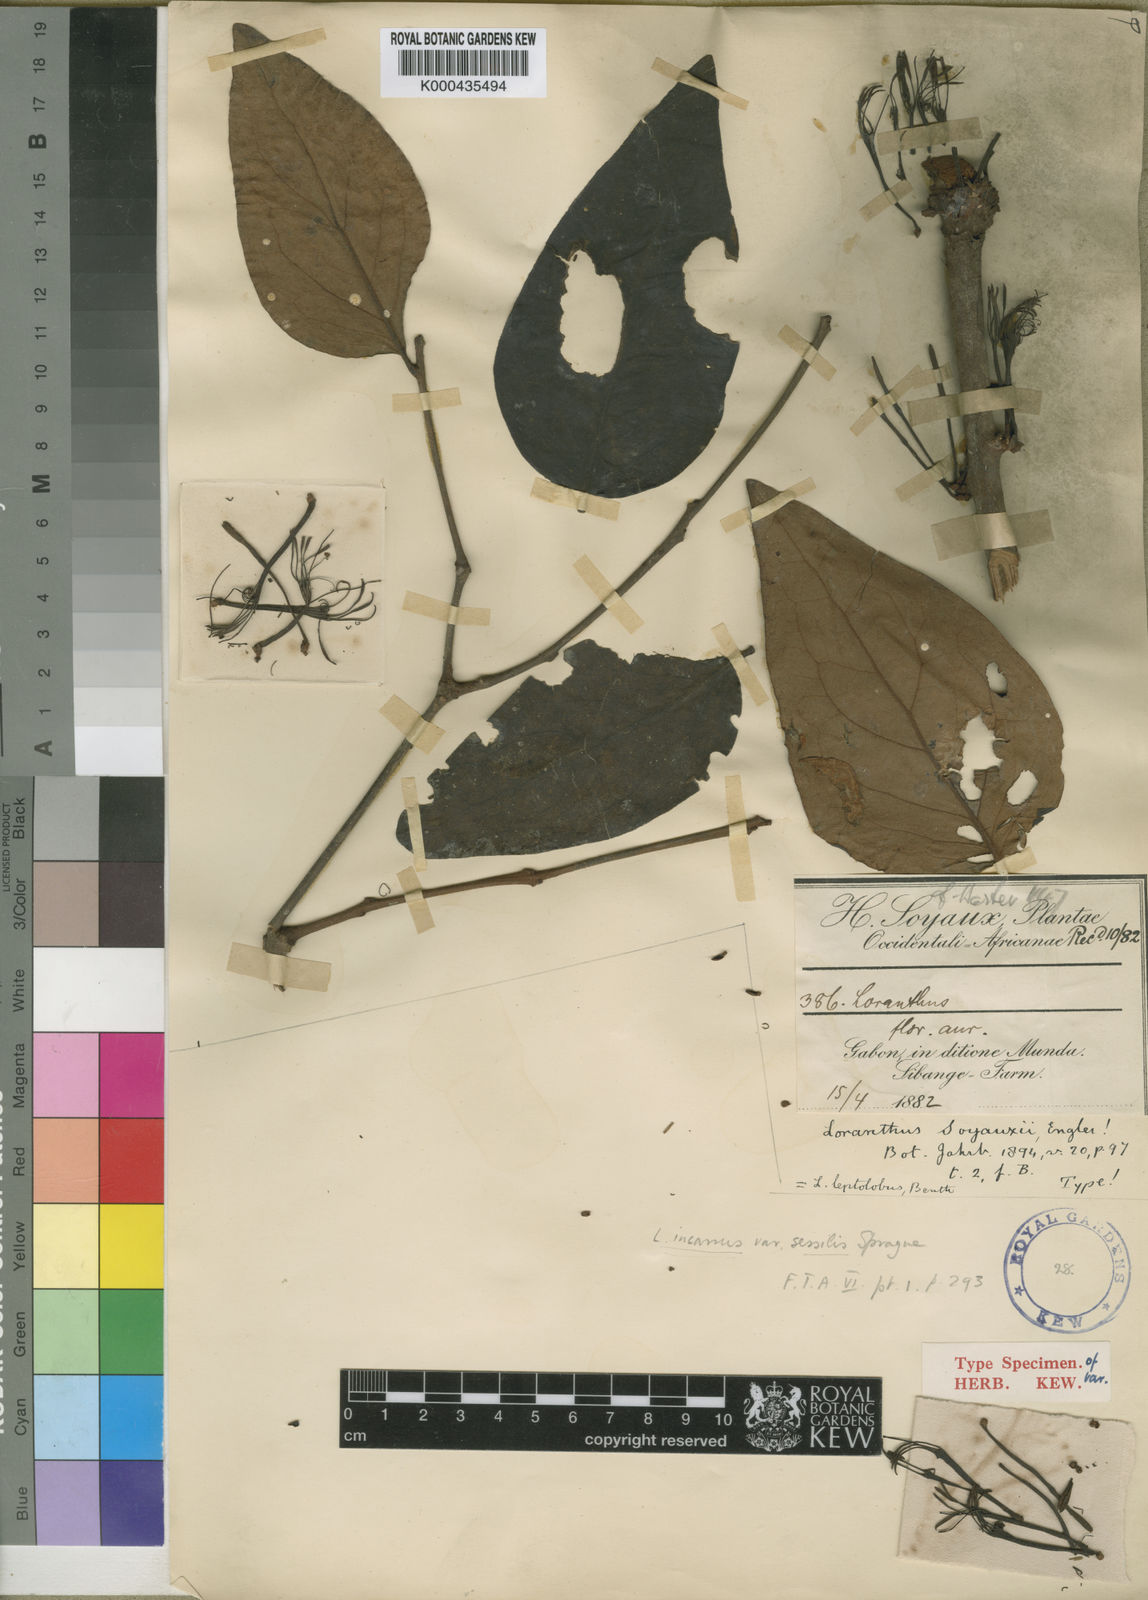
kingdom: Plantae
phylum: Tracheophyta
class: Magnoliopsida
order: Santalales
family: Loranthaceae
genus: Phragmanthera
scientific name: Phragmanthera capitata
